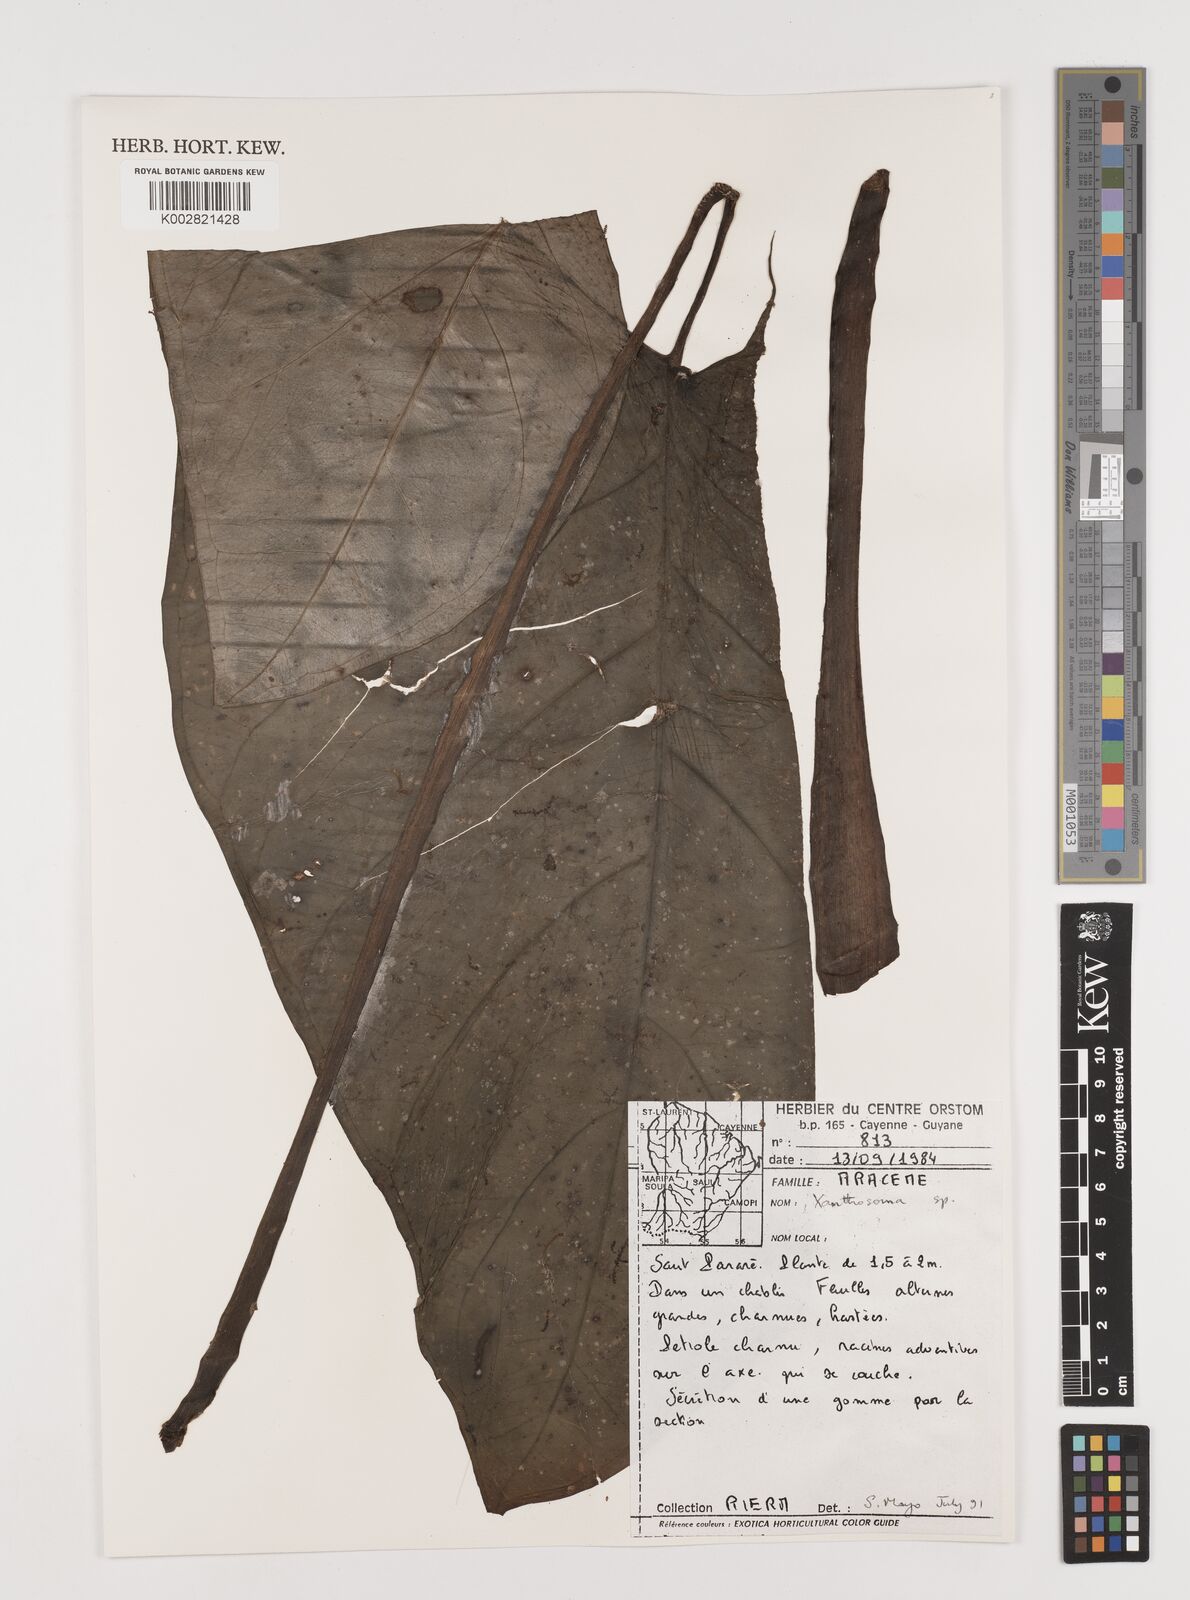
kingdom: Plantae
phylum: Tracheophyta
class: Liliopsida
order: Alismatales
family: Araceae
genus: Xanthosoma
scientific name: Xanthosoma
